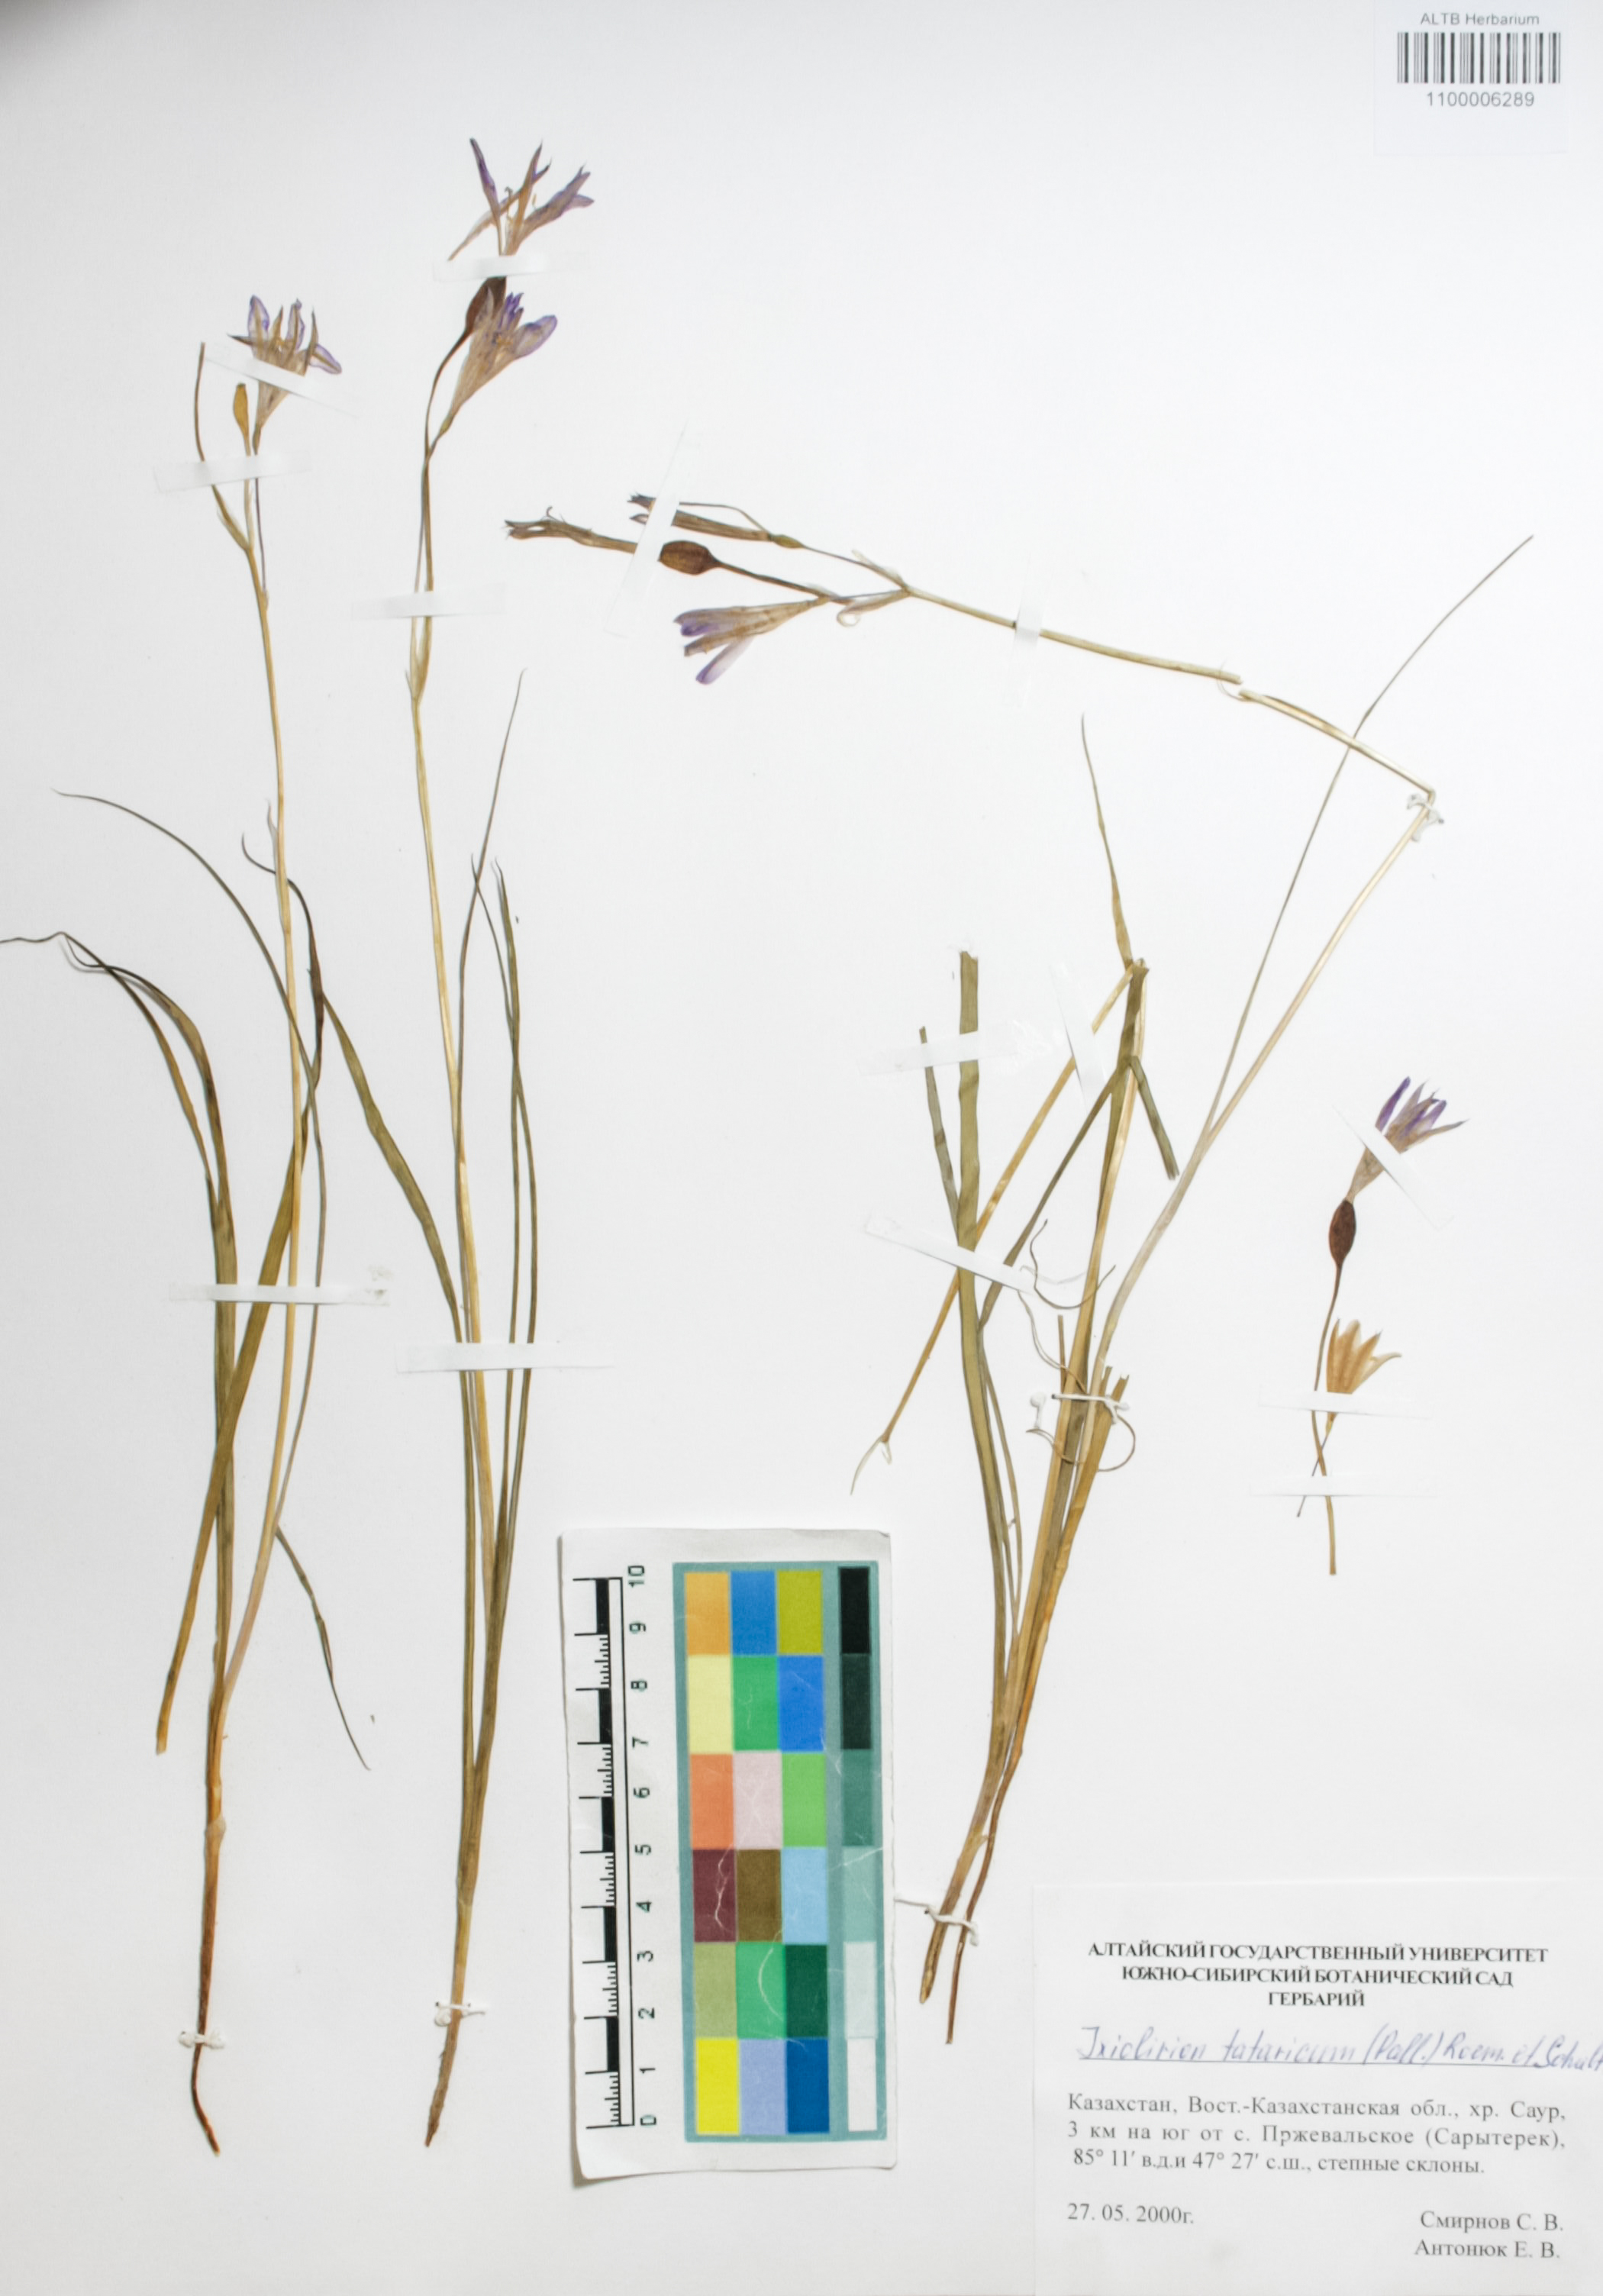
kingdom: Plantae
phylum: Tracheophyta
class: Liliopsida
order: Asparagales
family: Ixioliriaceae
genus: Ixiolirion
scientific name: Ixiolirion tataricum
